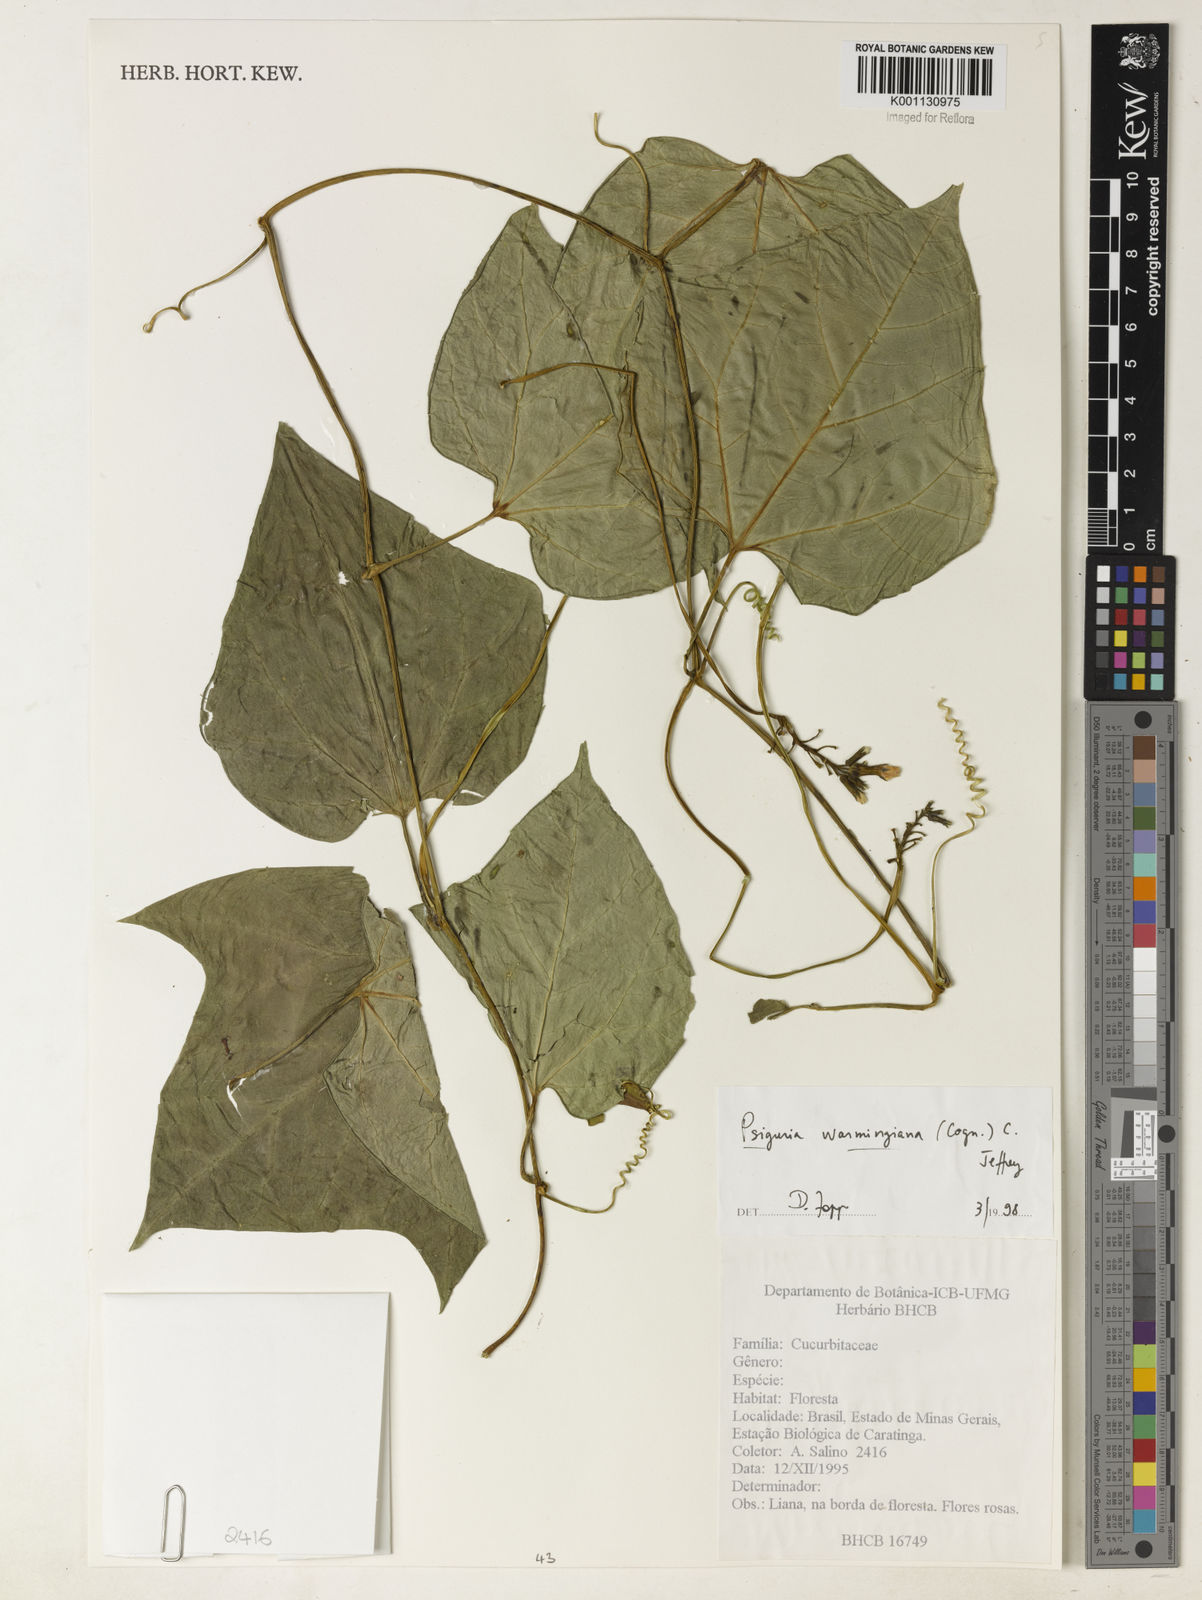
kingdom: Plantae
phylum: Tracheophyta
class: Magnoliopsida
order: Cucurbitales
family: Cucurbitaceae
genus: Psiguria
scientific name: Psiguria warmingiana
